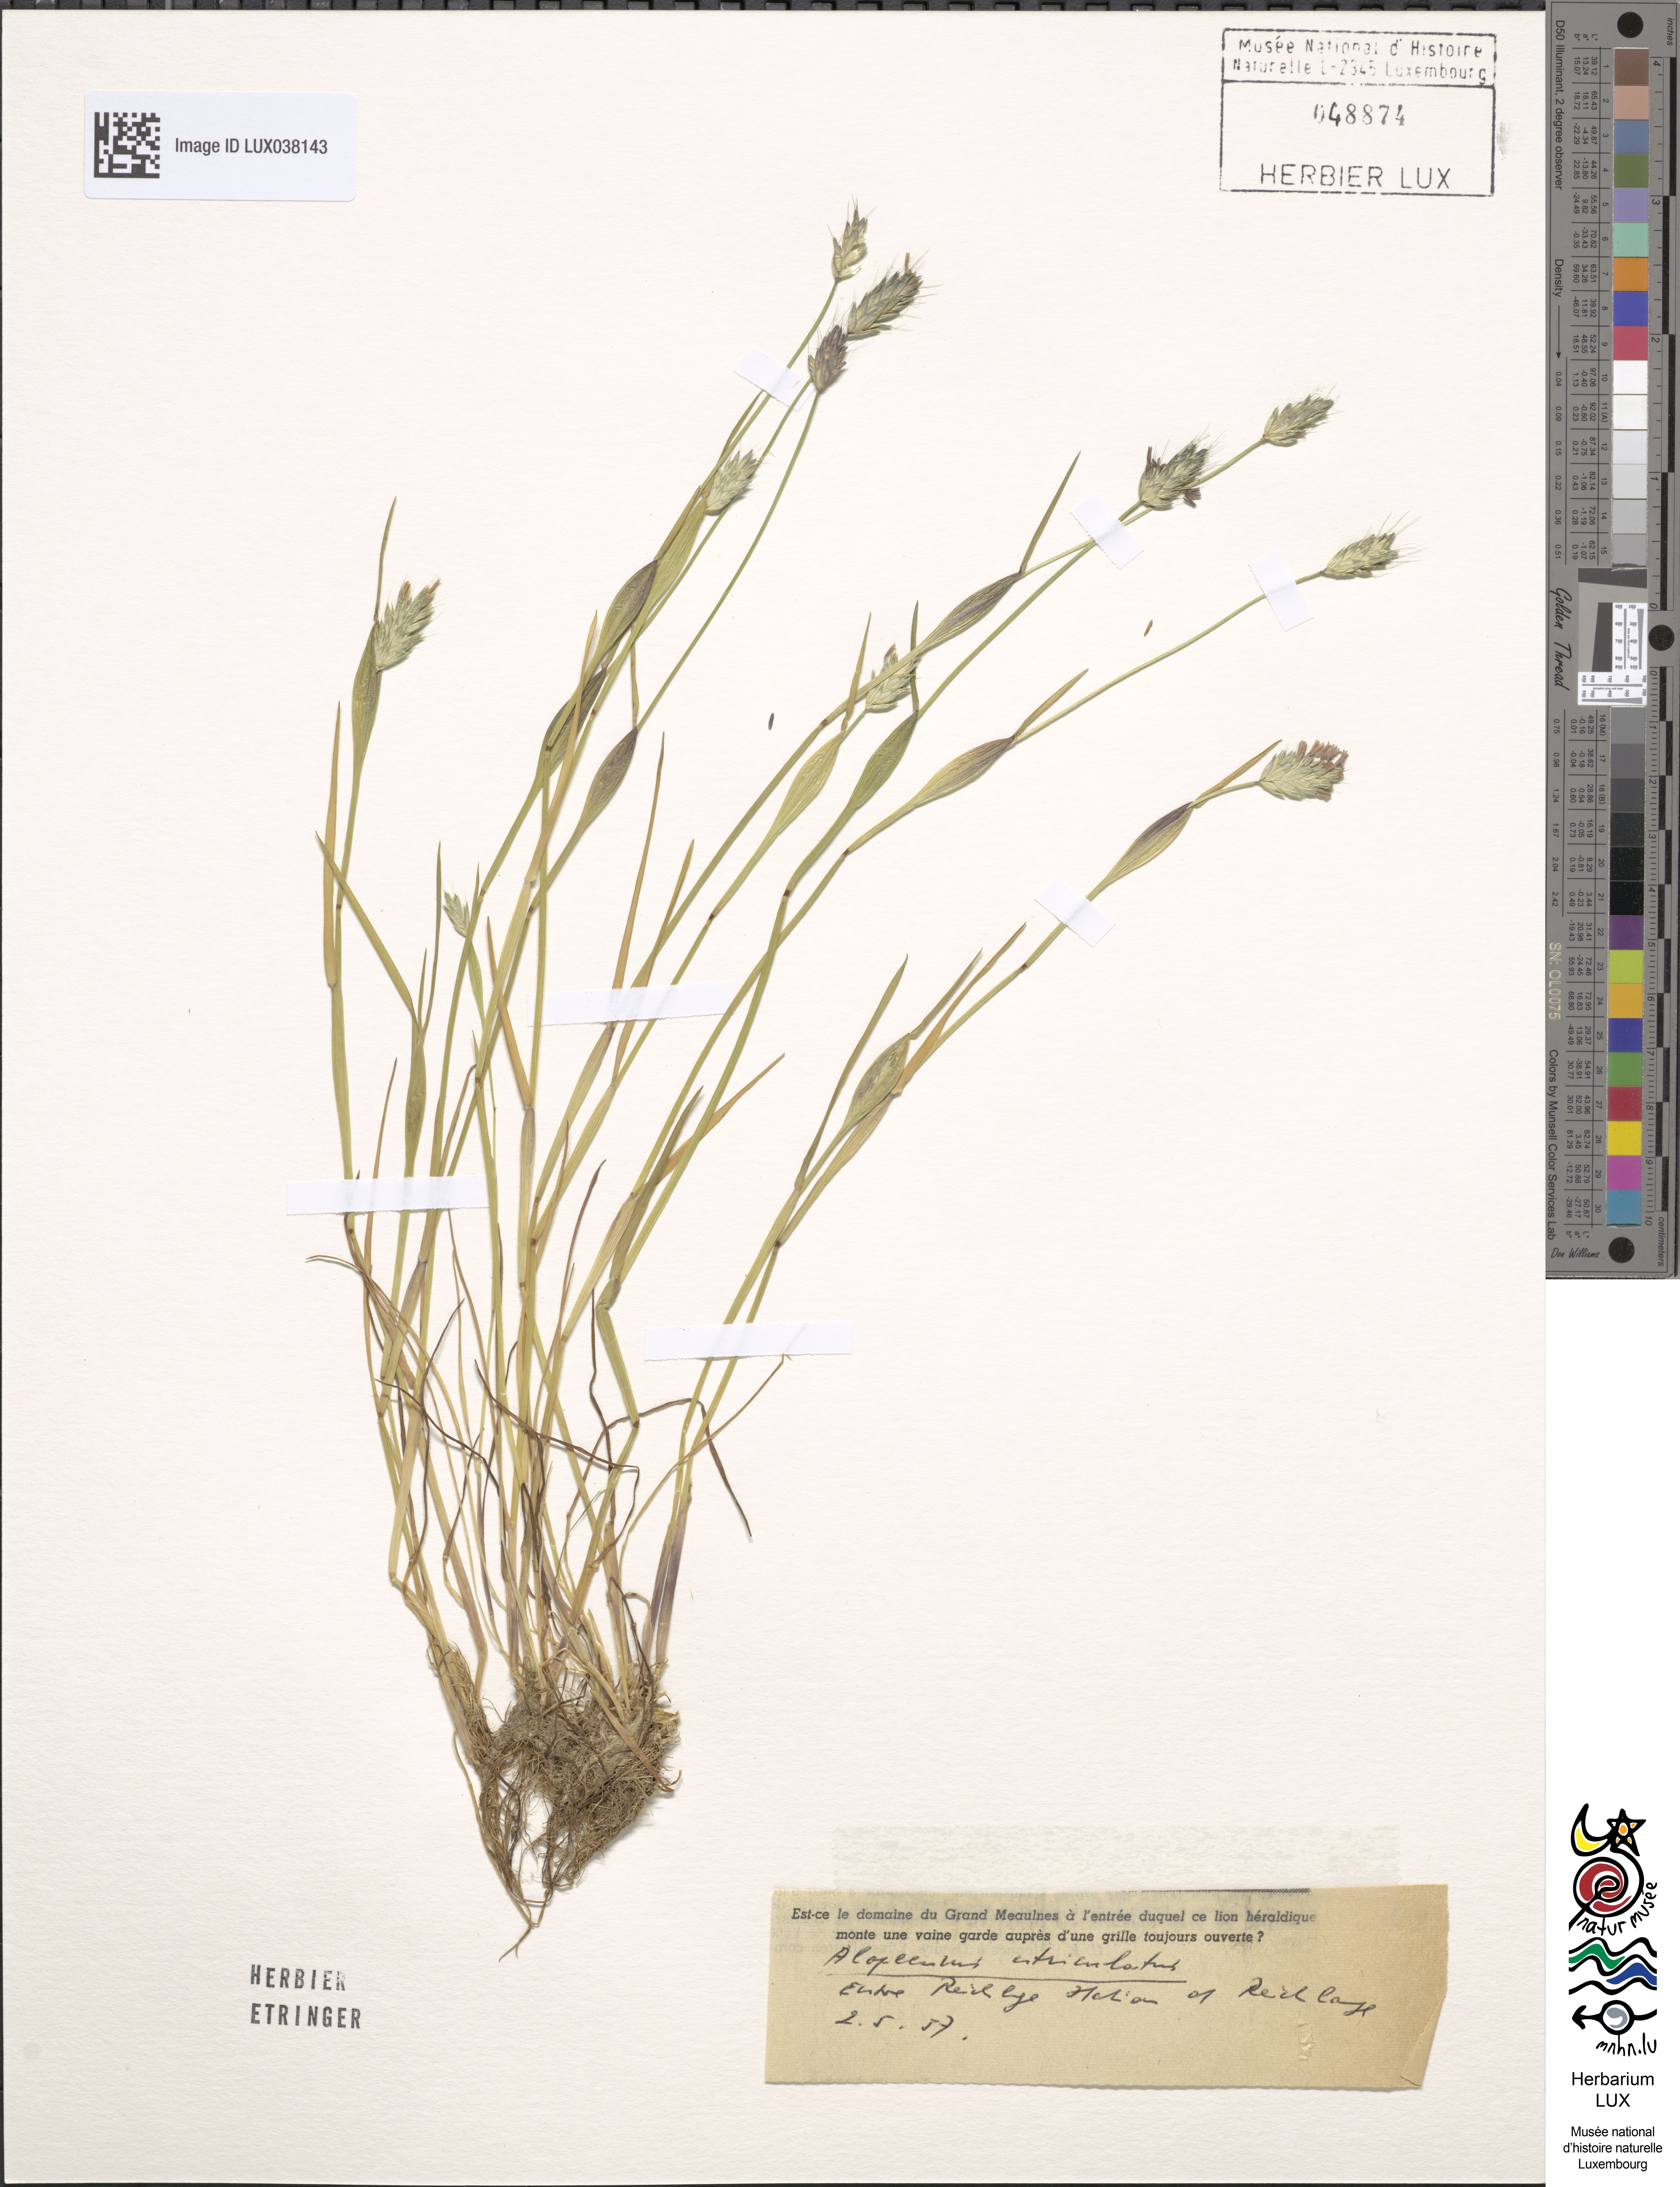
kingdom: Plantae
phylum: Tracheophyta
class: Liliopsida
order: Poales
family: Poaceae
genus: Alopecurus
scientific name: Alopecurus utriculatus
